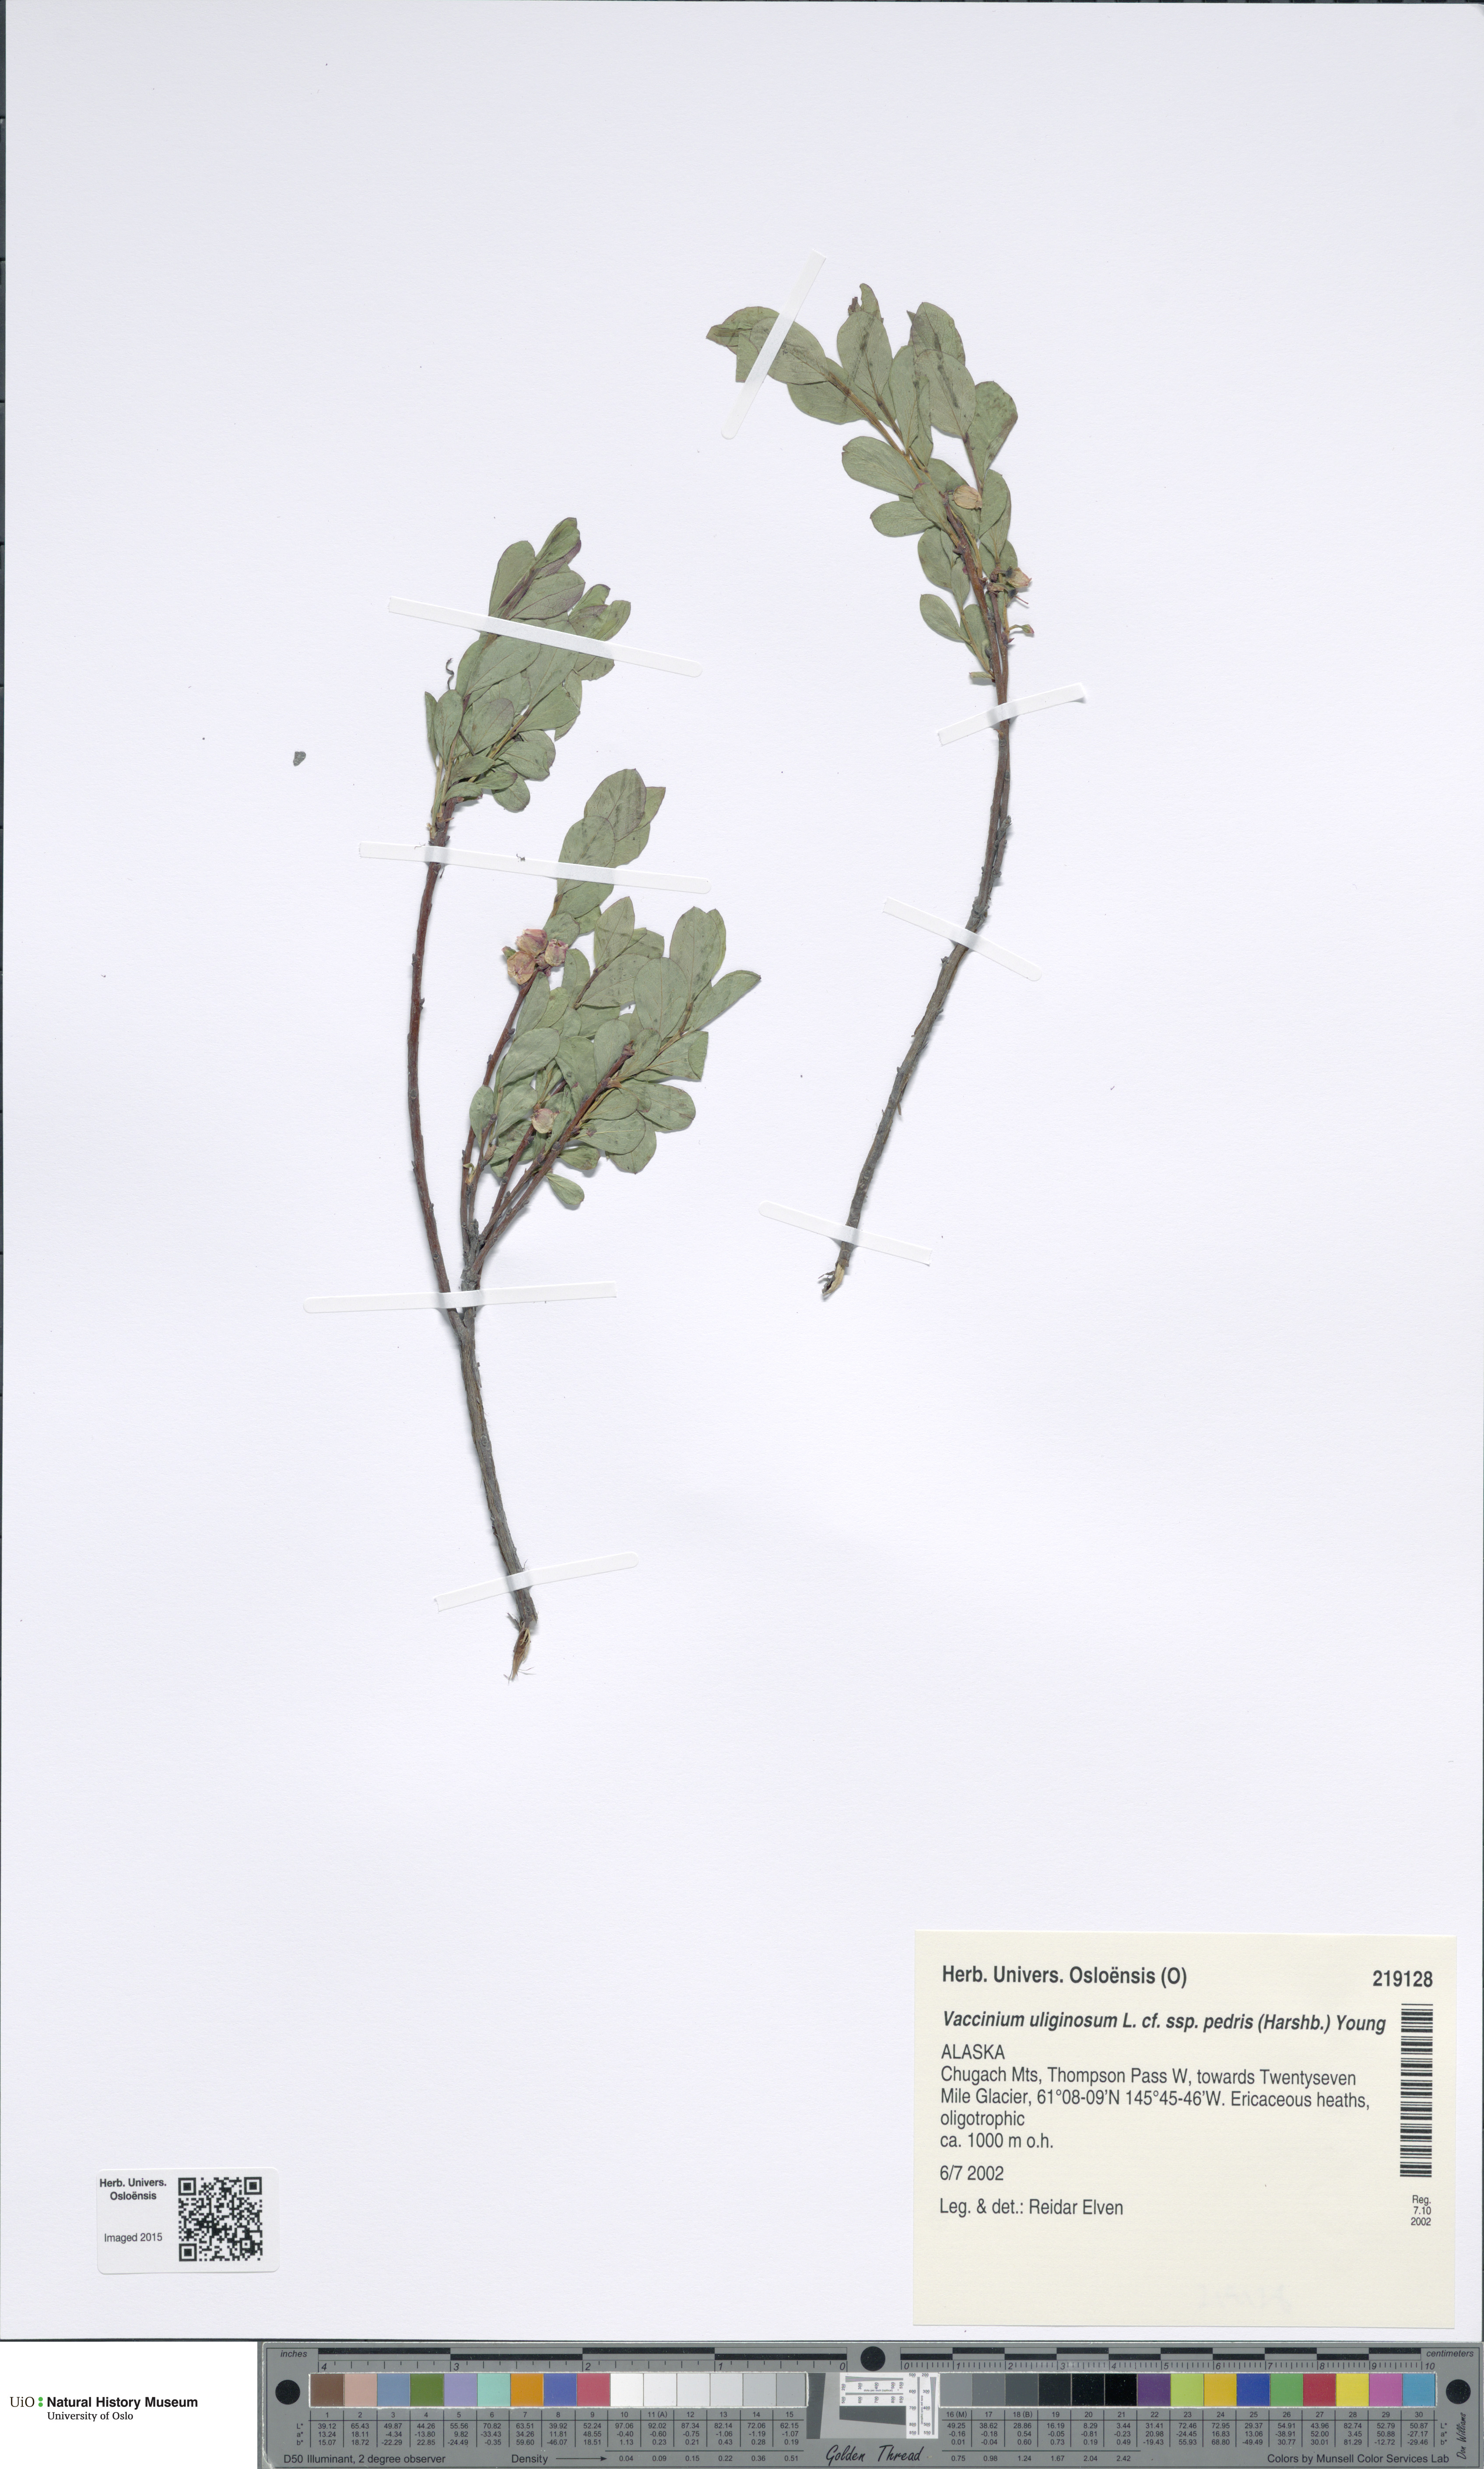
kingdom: Plantae
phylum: Tracheophyta
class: Magnoliopsida
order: Ericales
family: Ericaceae
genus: Vaccinium
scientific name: Vaccinium uliginosum
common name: Bog bilberry
